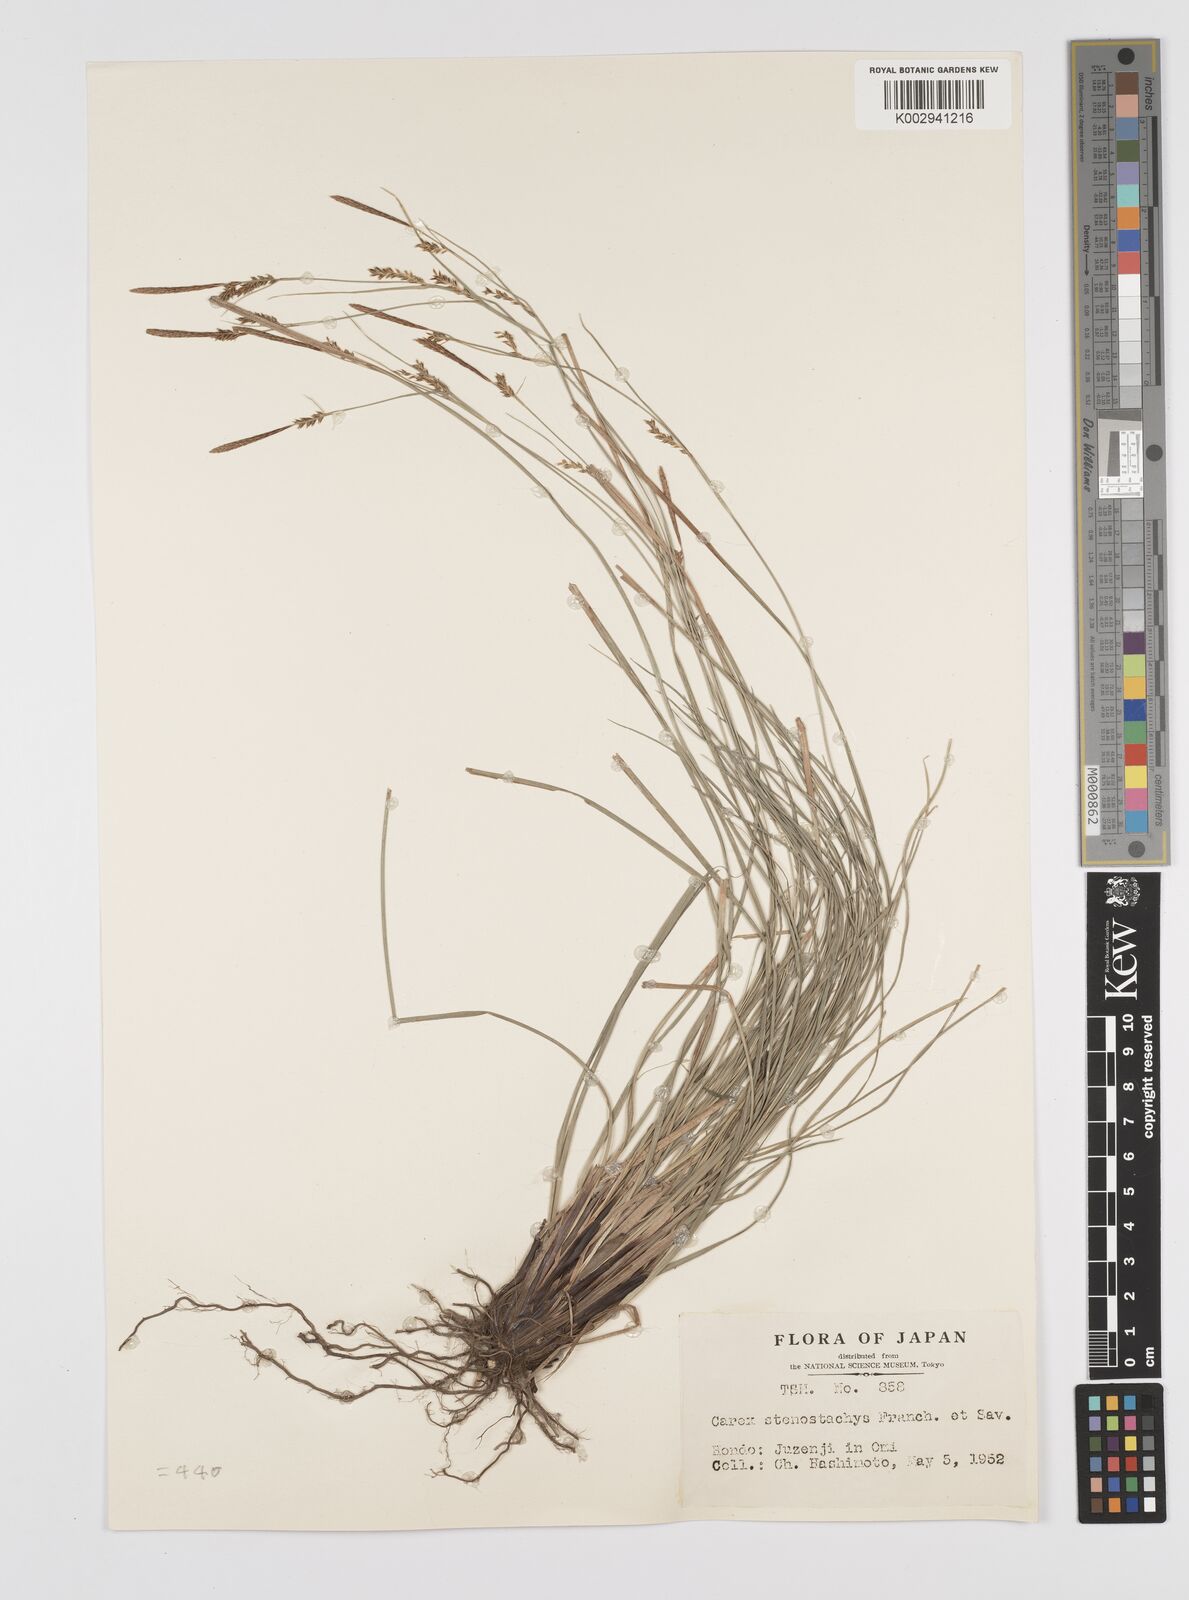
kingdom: Plantae
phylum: Tracheophyta
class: Liliopsida
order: Poales
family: Cyperaceae
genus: Carex
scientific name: Carex pisiformis
